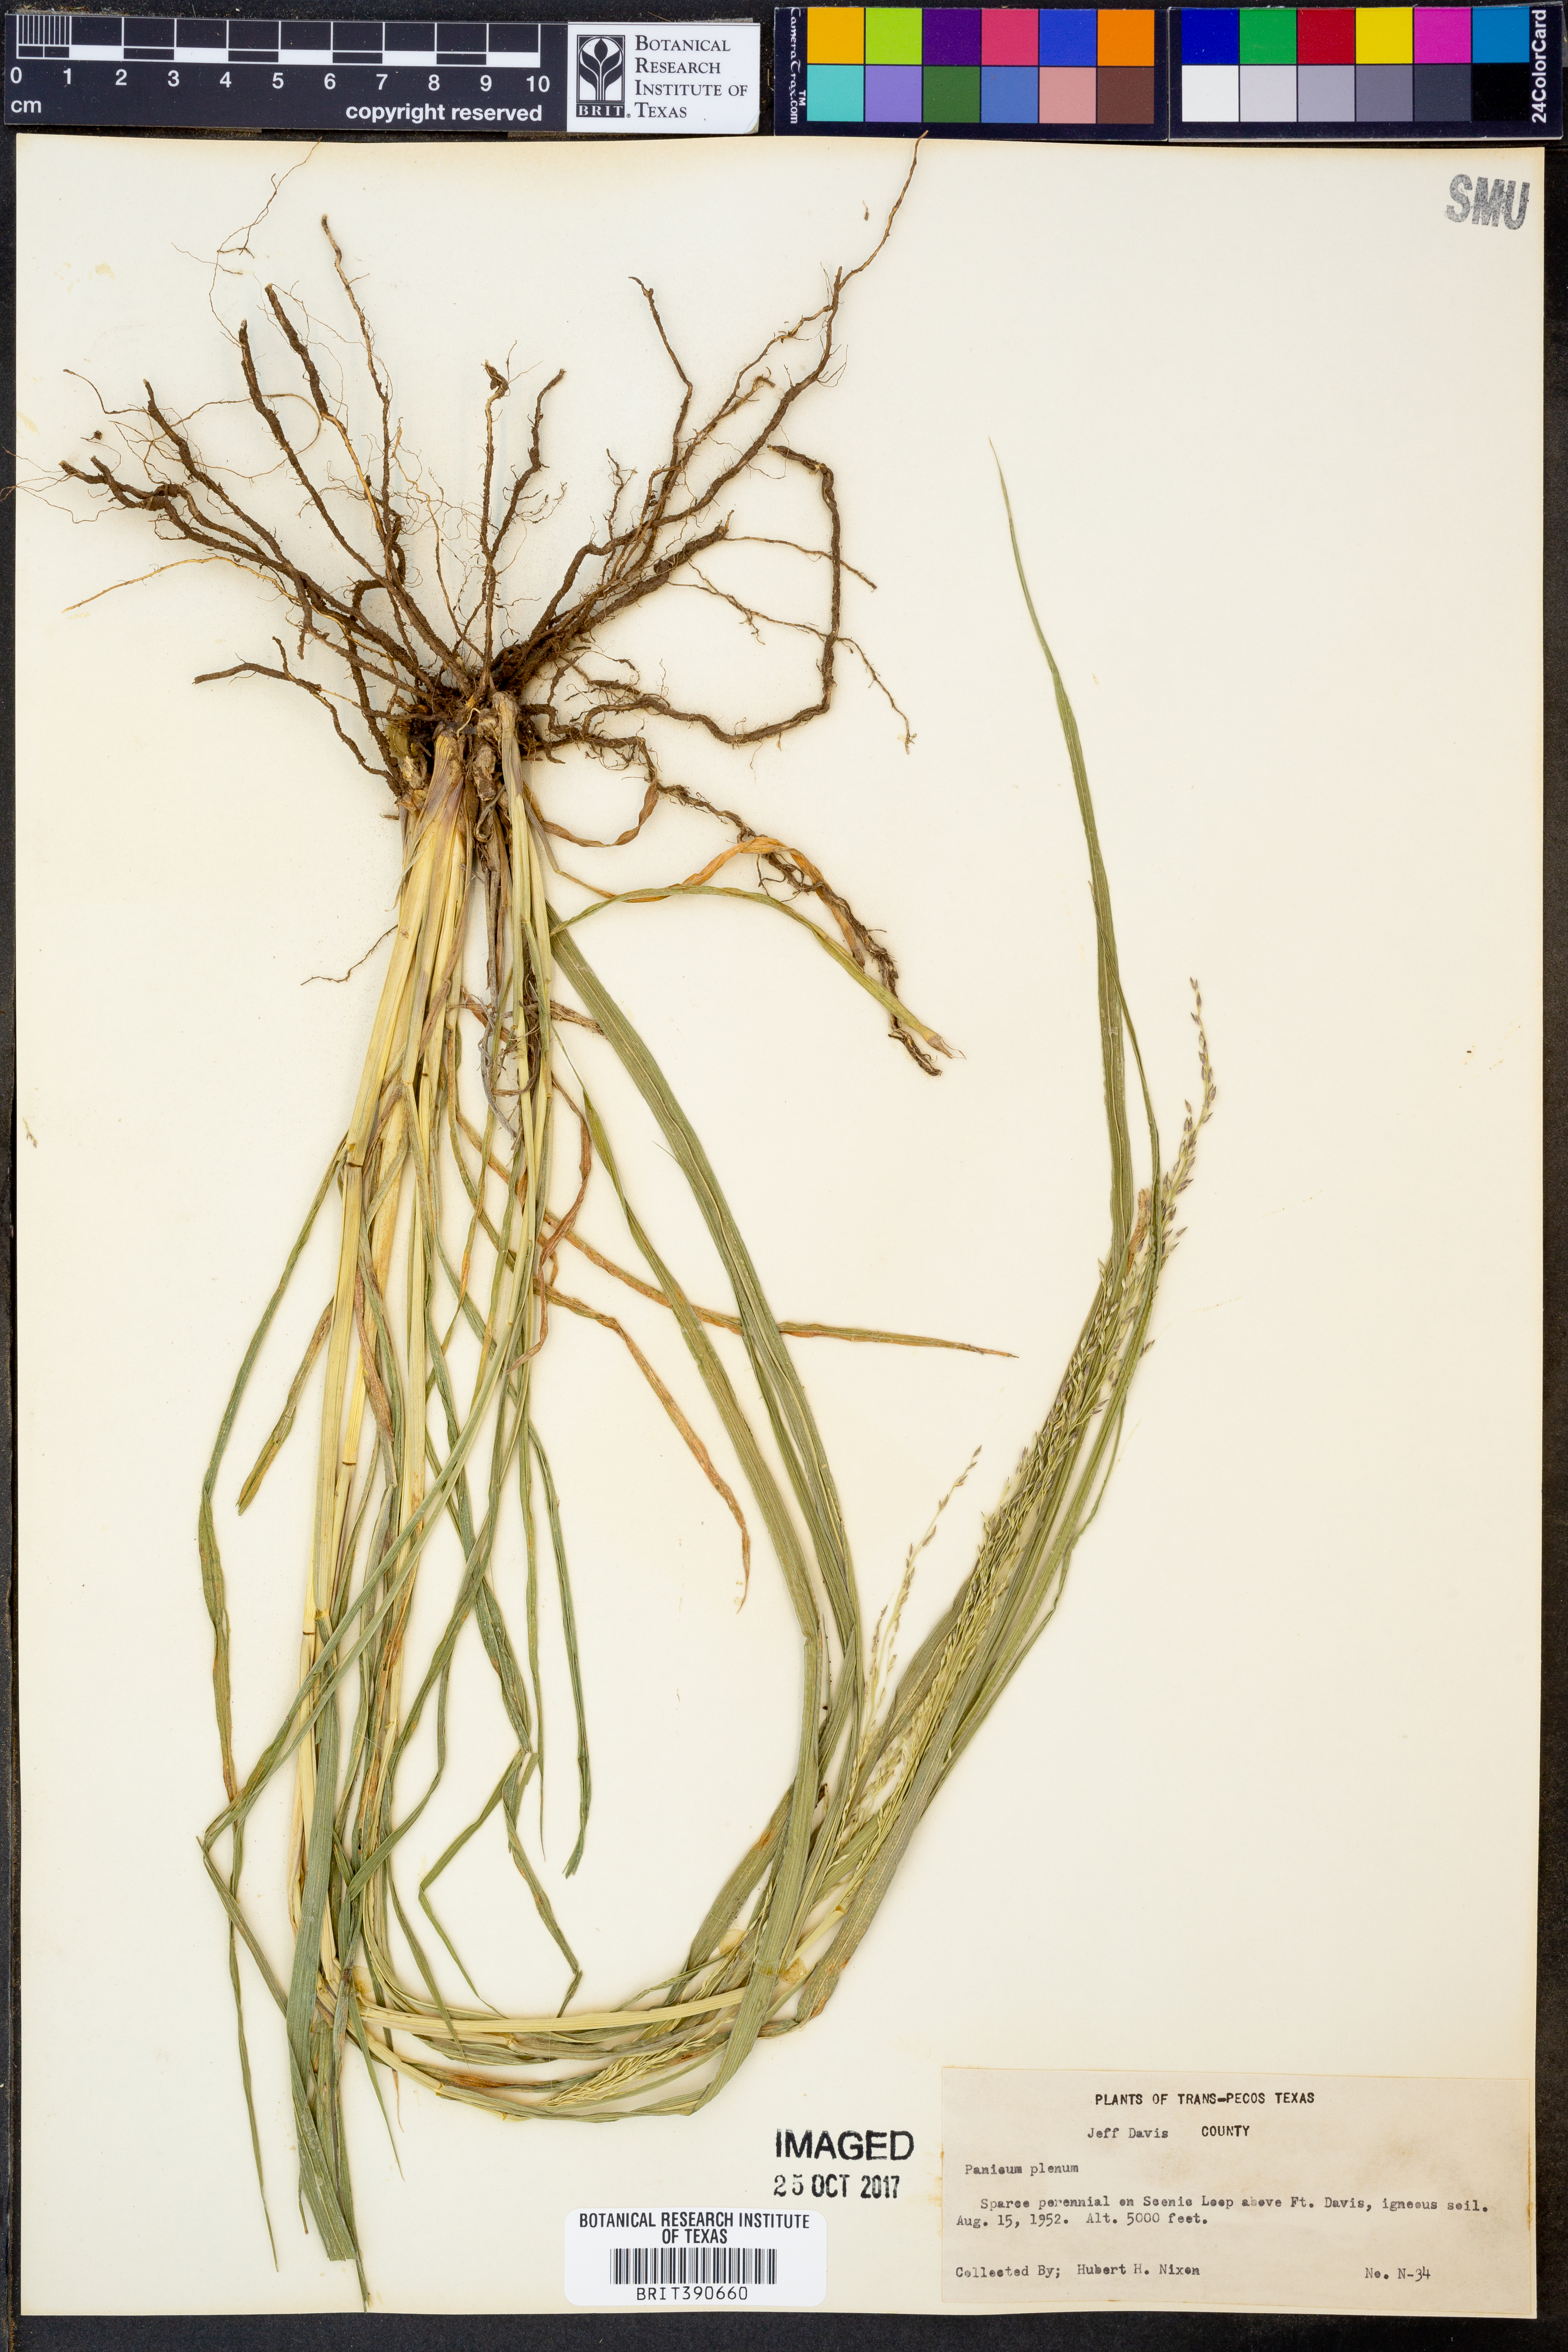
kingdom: Plantae
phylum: Tracheophyta
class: Liliopsida
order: Poales
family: Poaceae
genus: Panicum
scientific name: Panicum plenum
